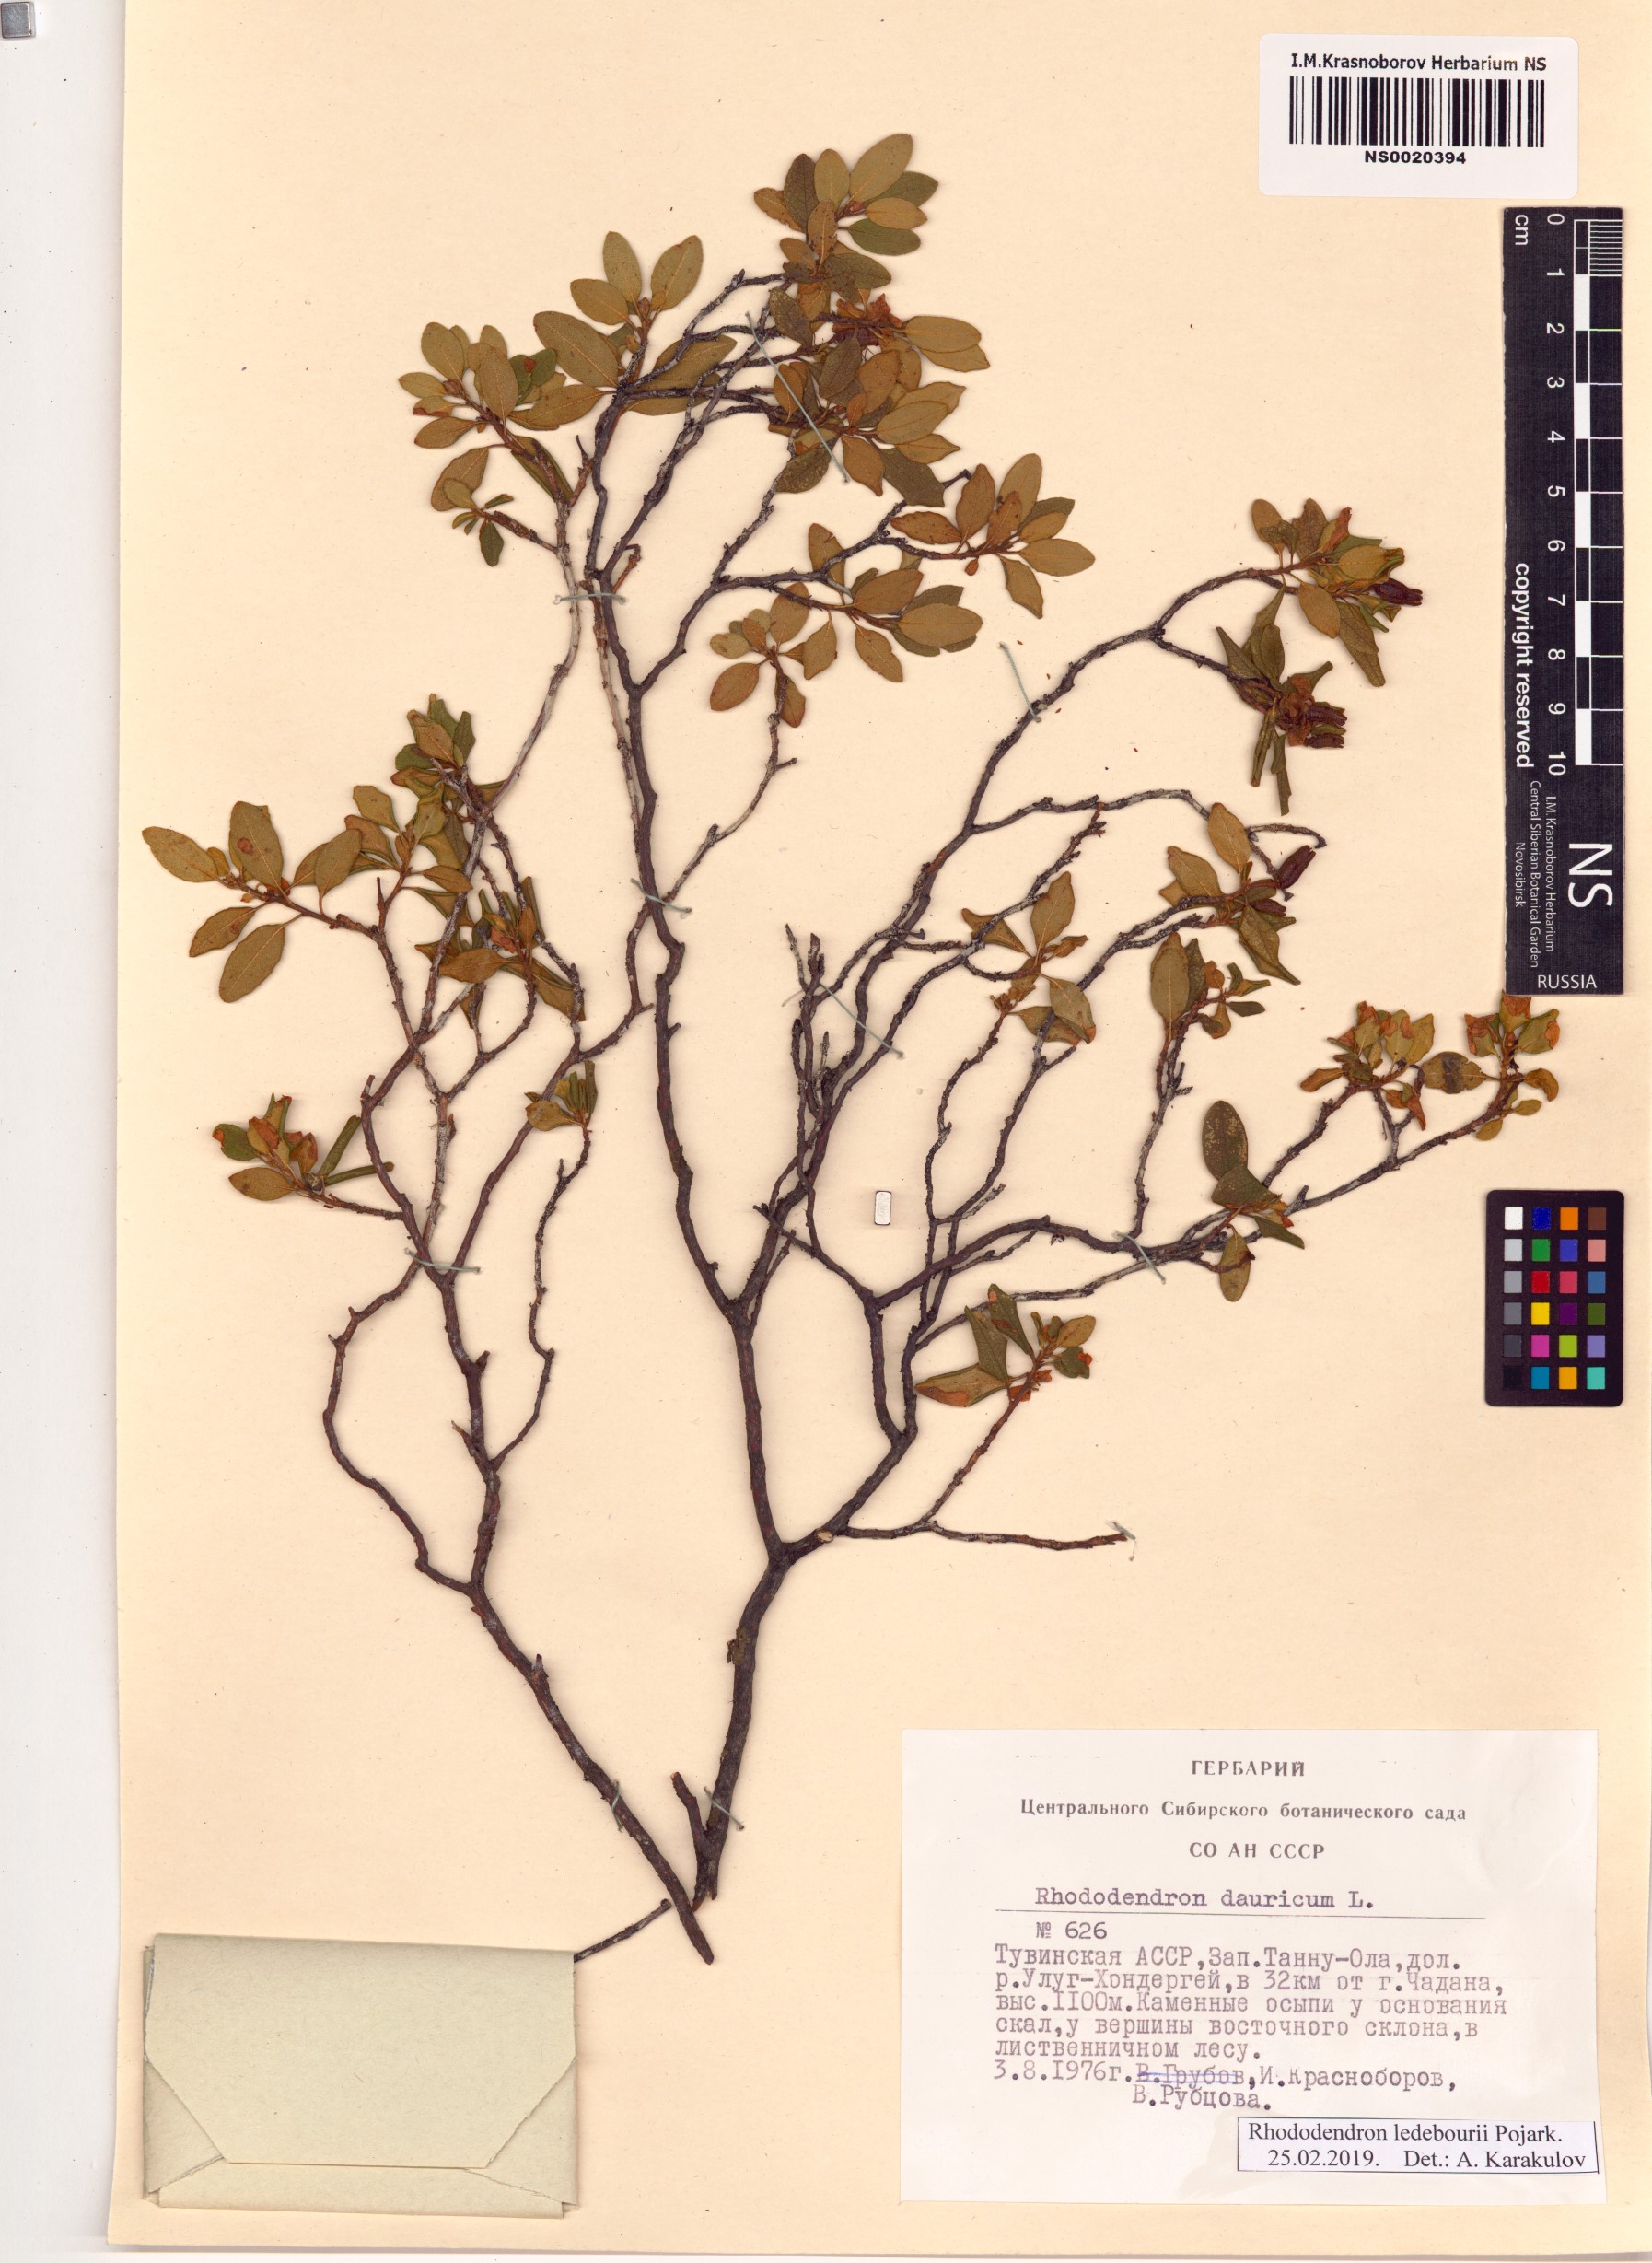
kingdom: Plantae
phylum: Tracheophyta
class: Magnoliopsida
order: Ericales
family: Ericaceae
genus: Rhododendron
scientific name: Rhododendron dauricum
